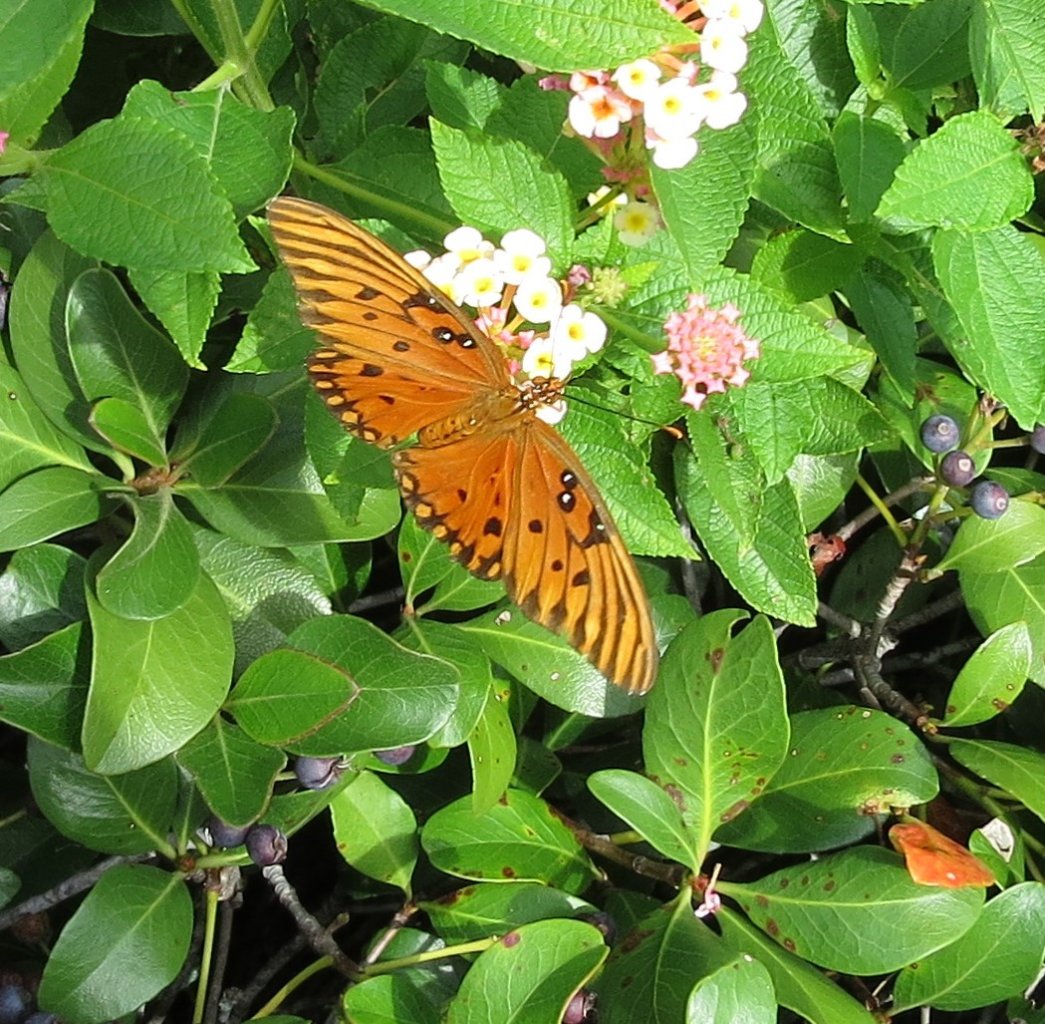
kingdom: Animalia
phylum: Arthropoda
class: Insecta
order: Lepidoptera
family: Nymphalidae
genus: Dione
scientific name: Dione vanillae
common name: Gulf Fritillary
